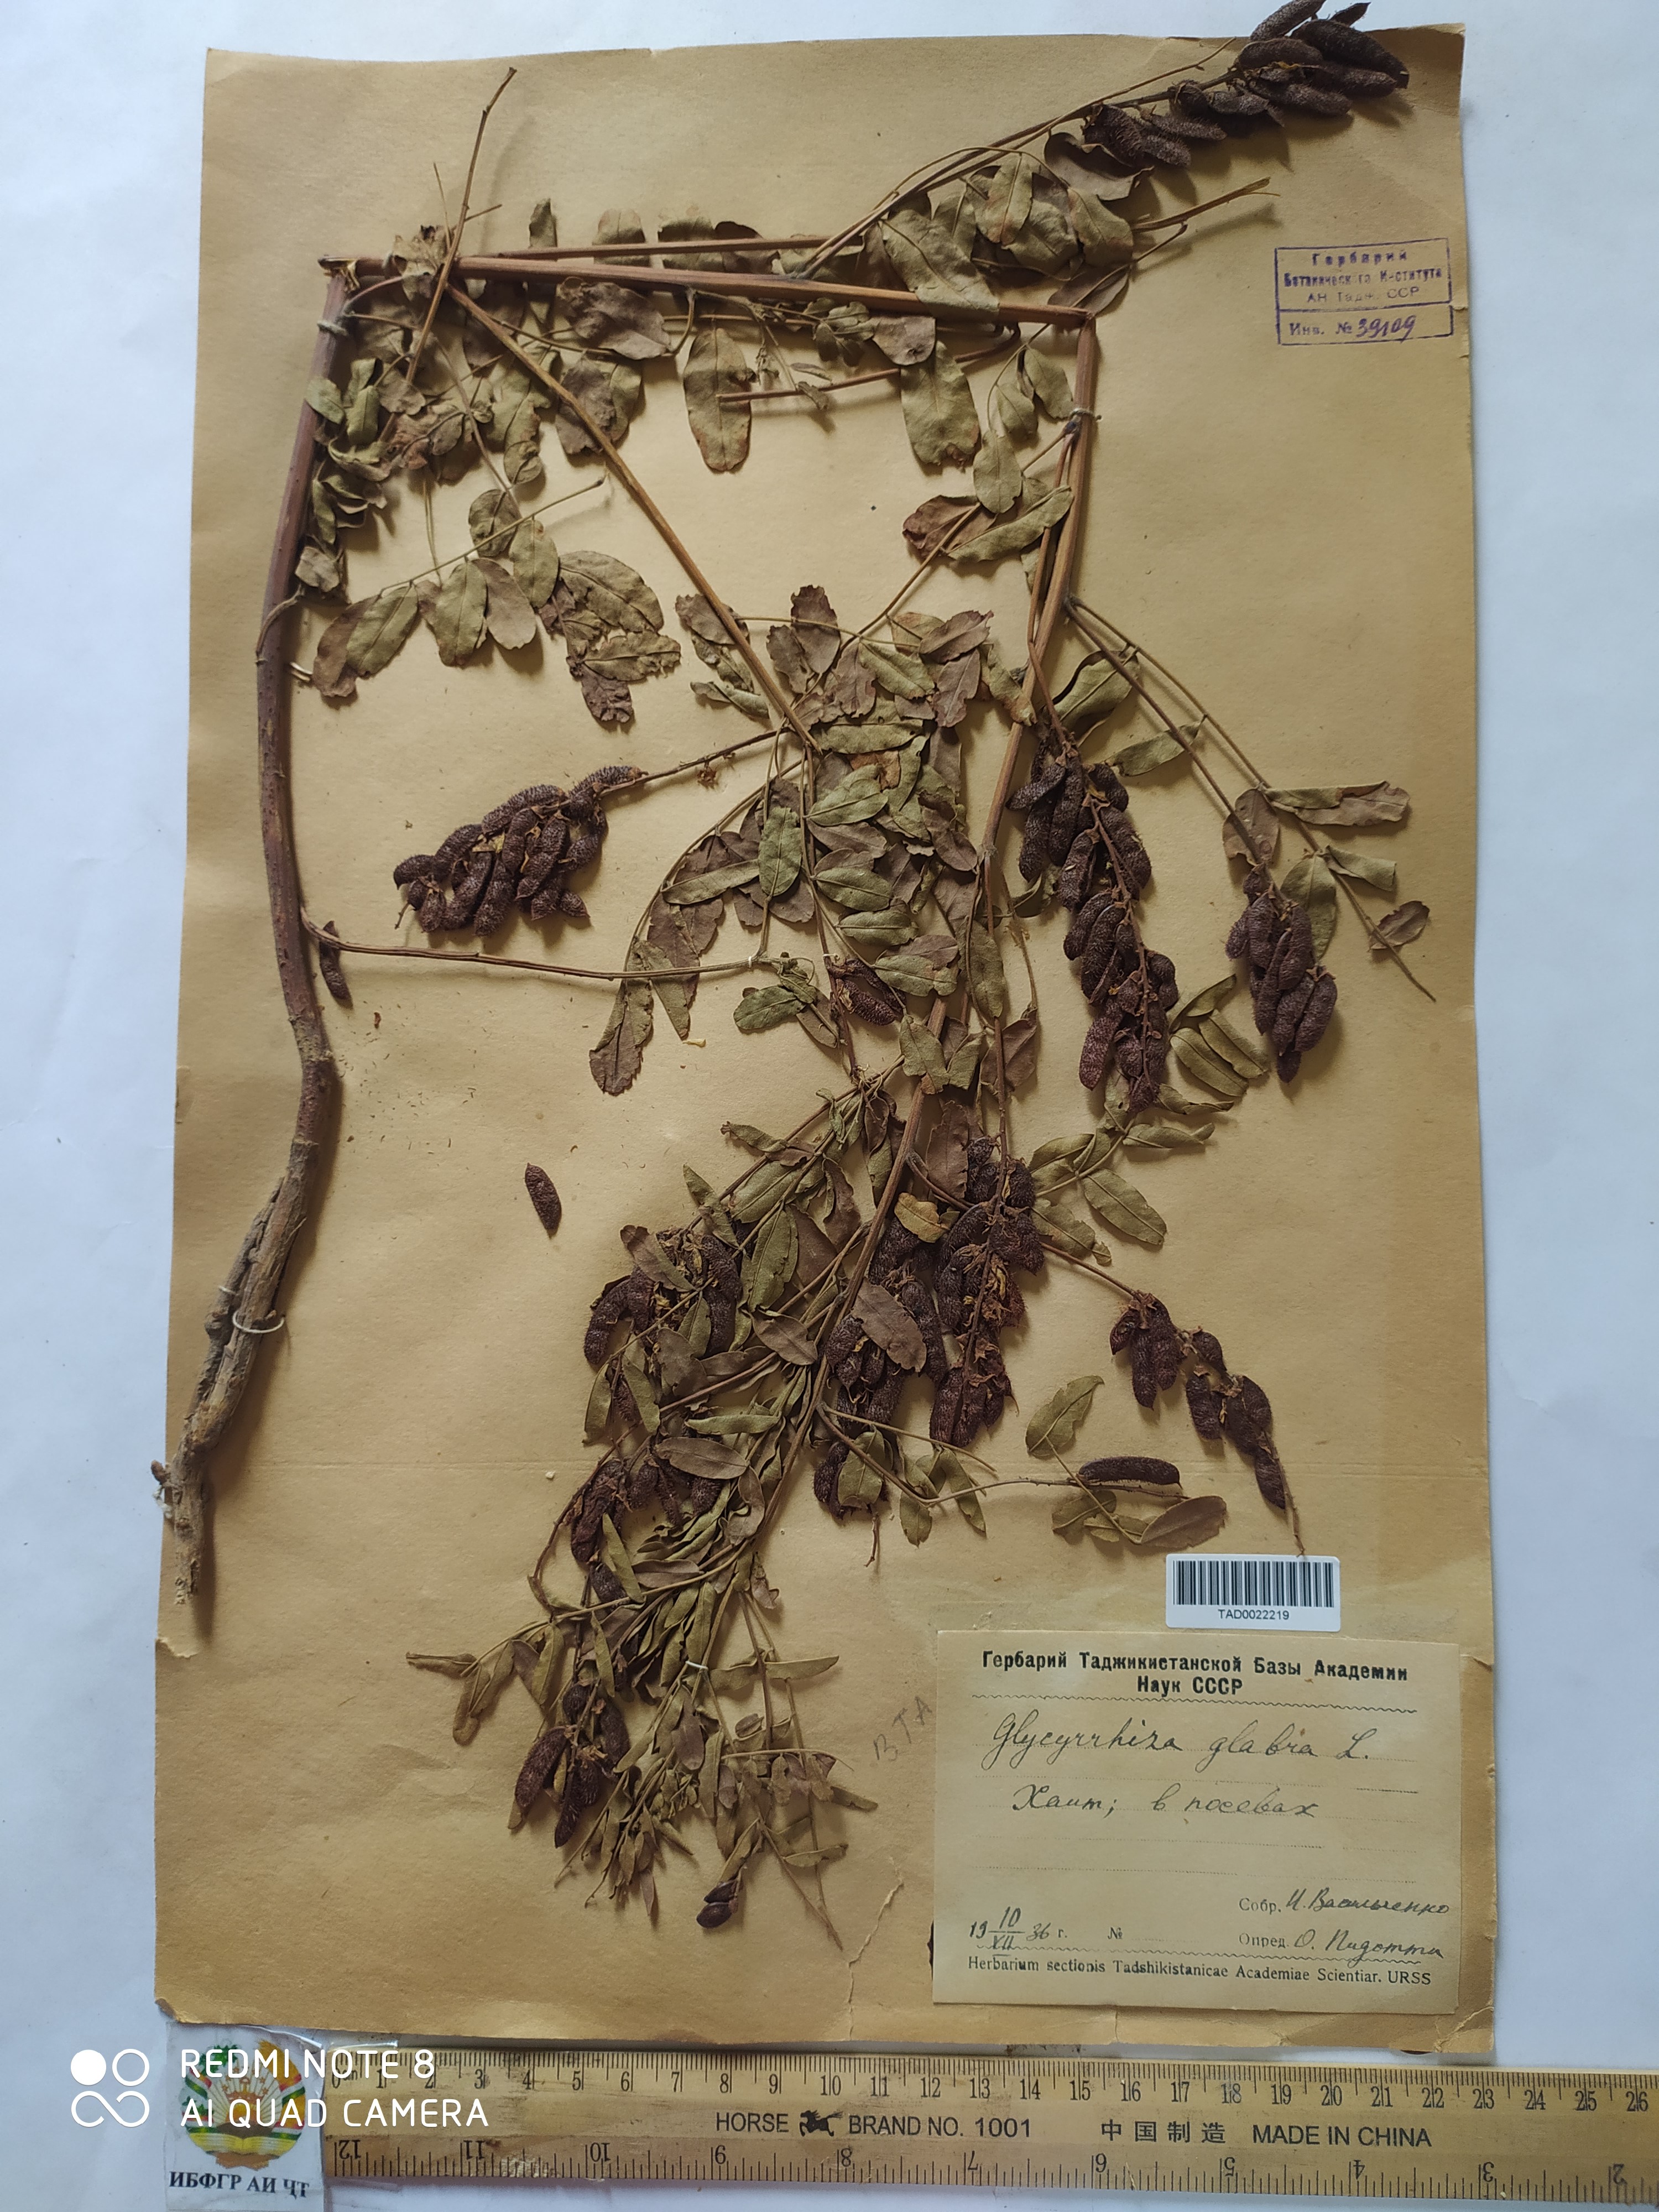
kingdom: Plantae
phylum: Tracheophyta
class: Magnoliopsida
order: Fabales
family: Fabaceae
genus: Glycyrrhiza
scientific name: Glycyrrhiza glabra
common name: Liquorice
